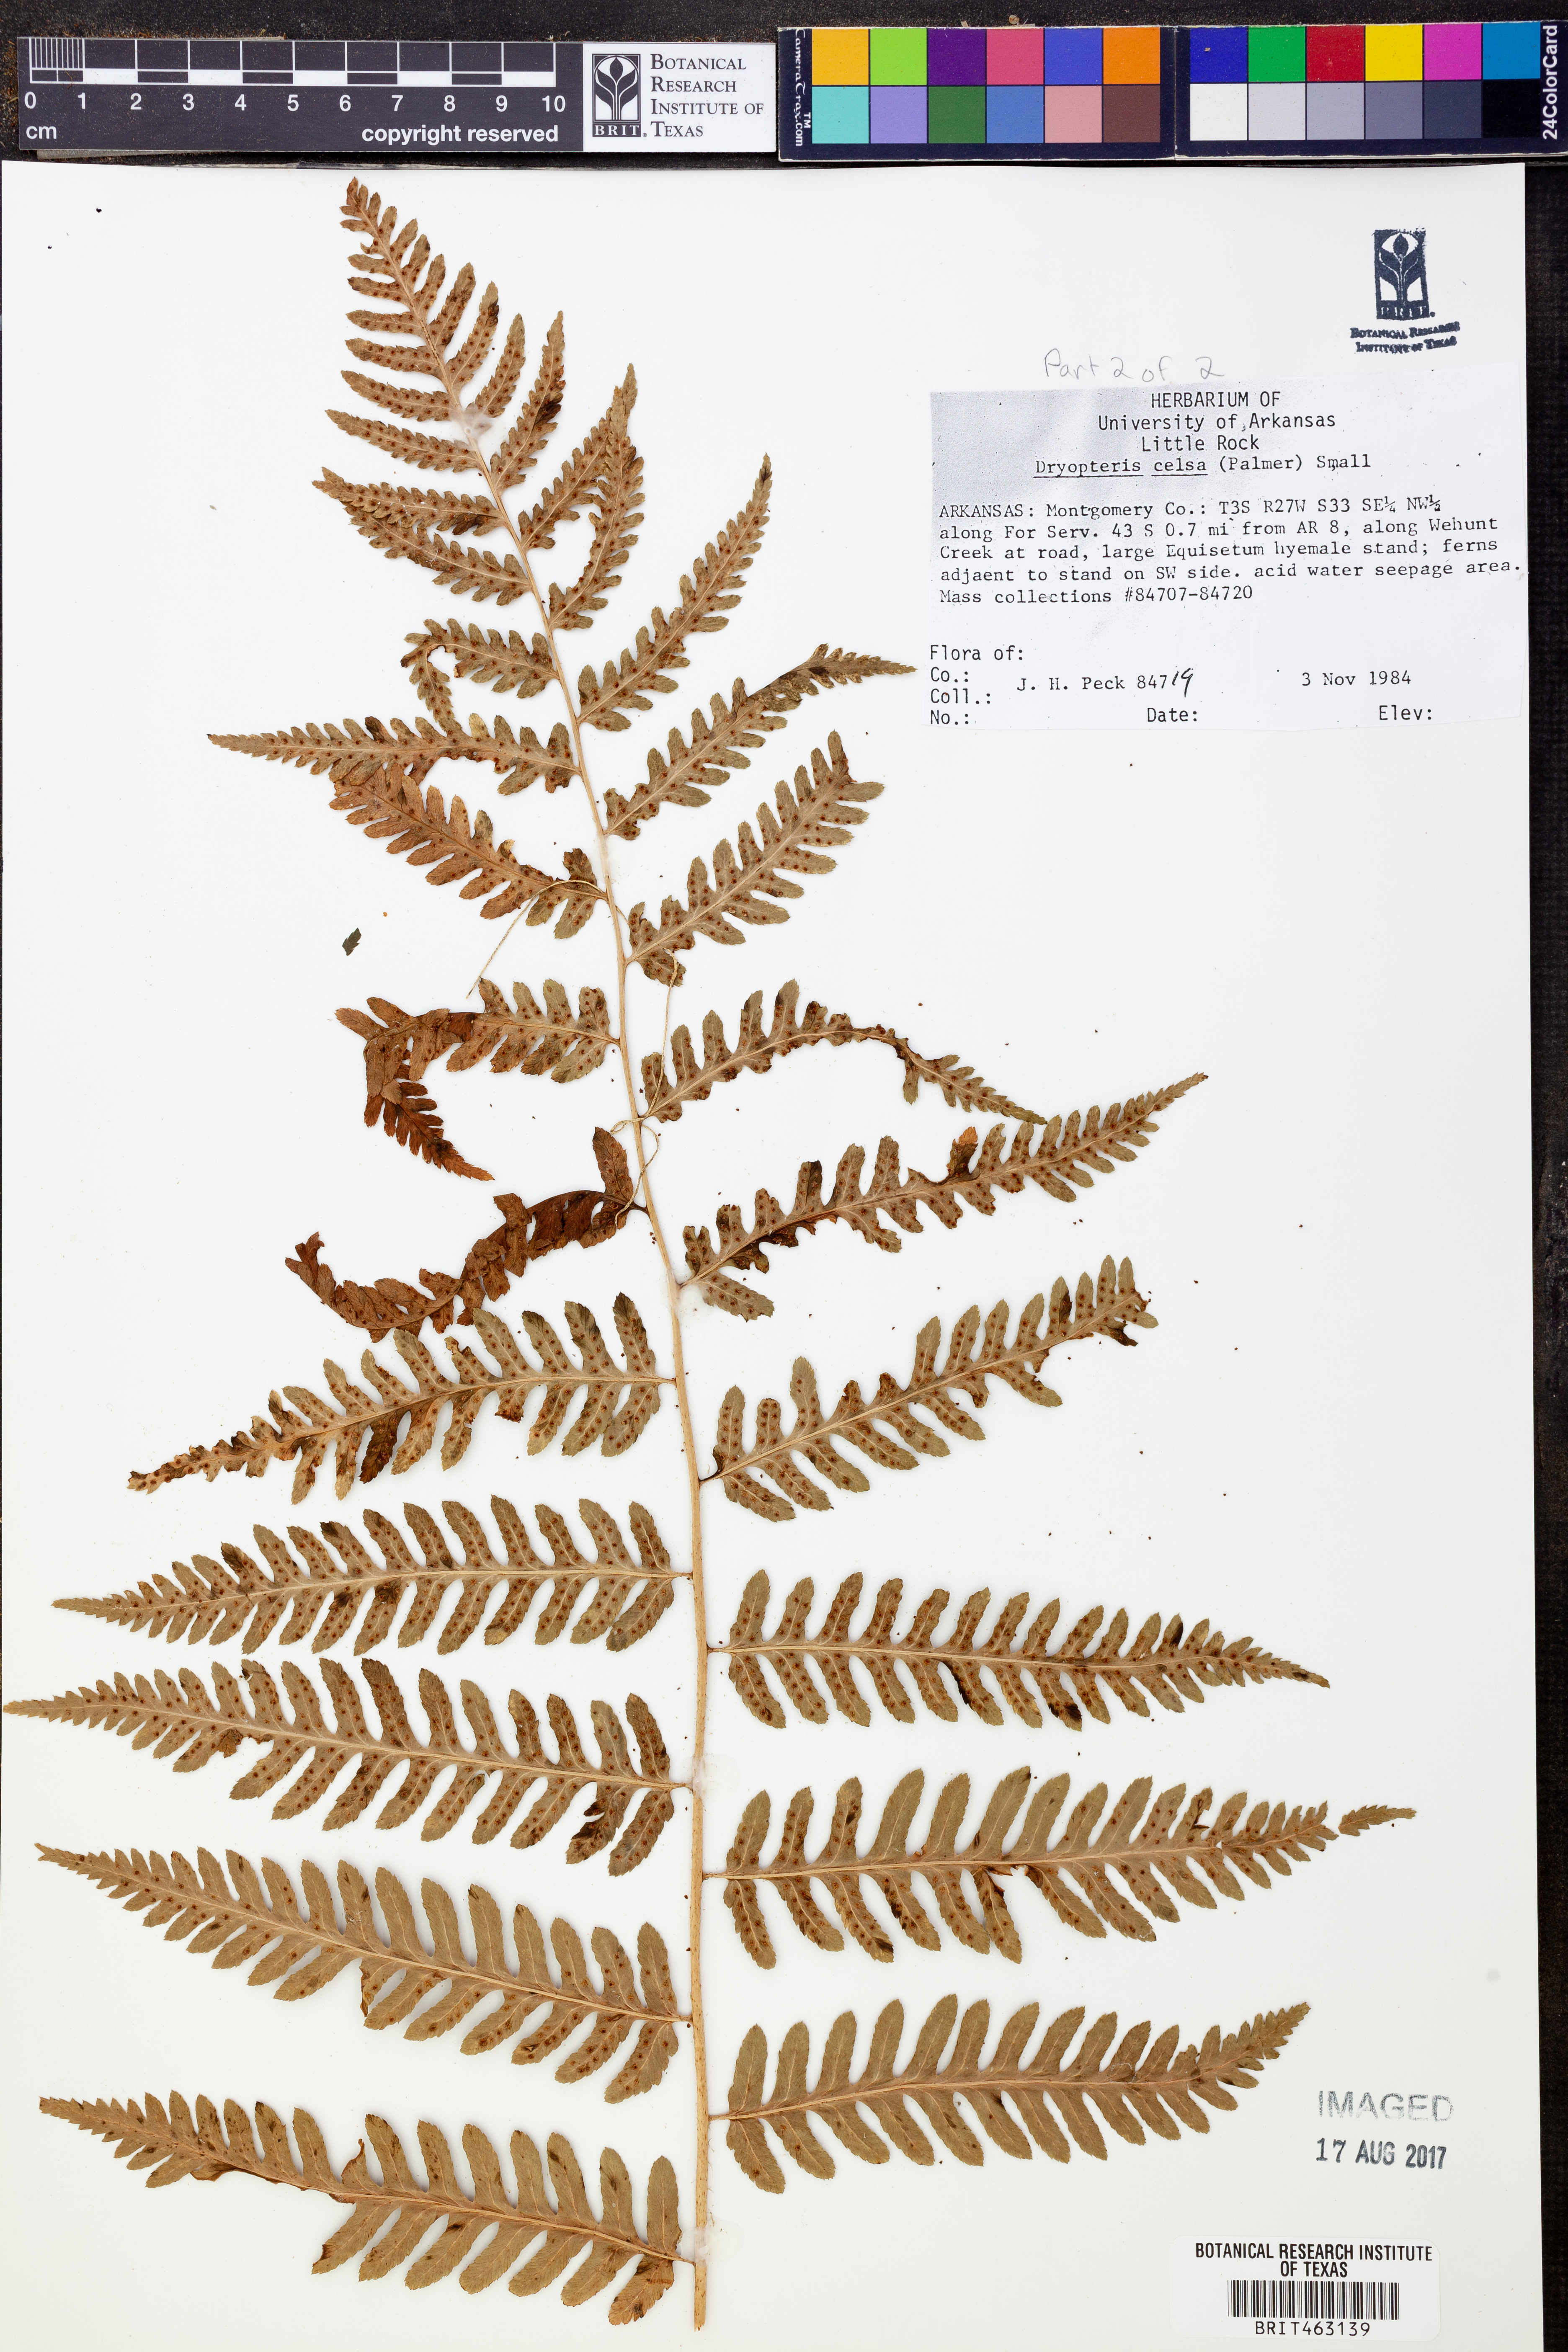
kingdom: Plantae
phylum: Tracheophyta
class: Polypodiopsida
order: Polypodiales
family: Dryopteridaceae
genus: Dryopteris
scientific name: Dryopteris celsa
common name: Log fern
